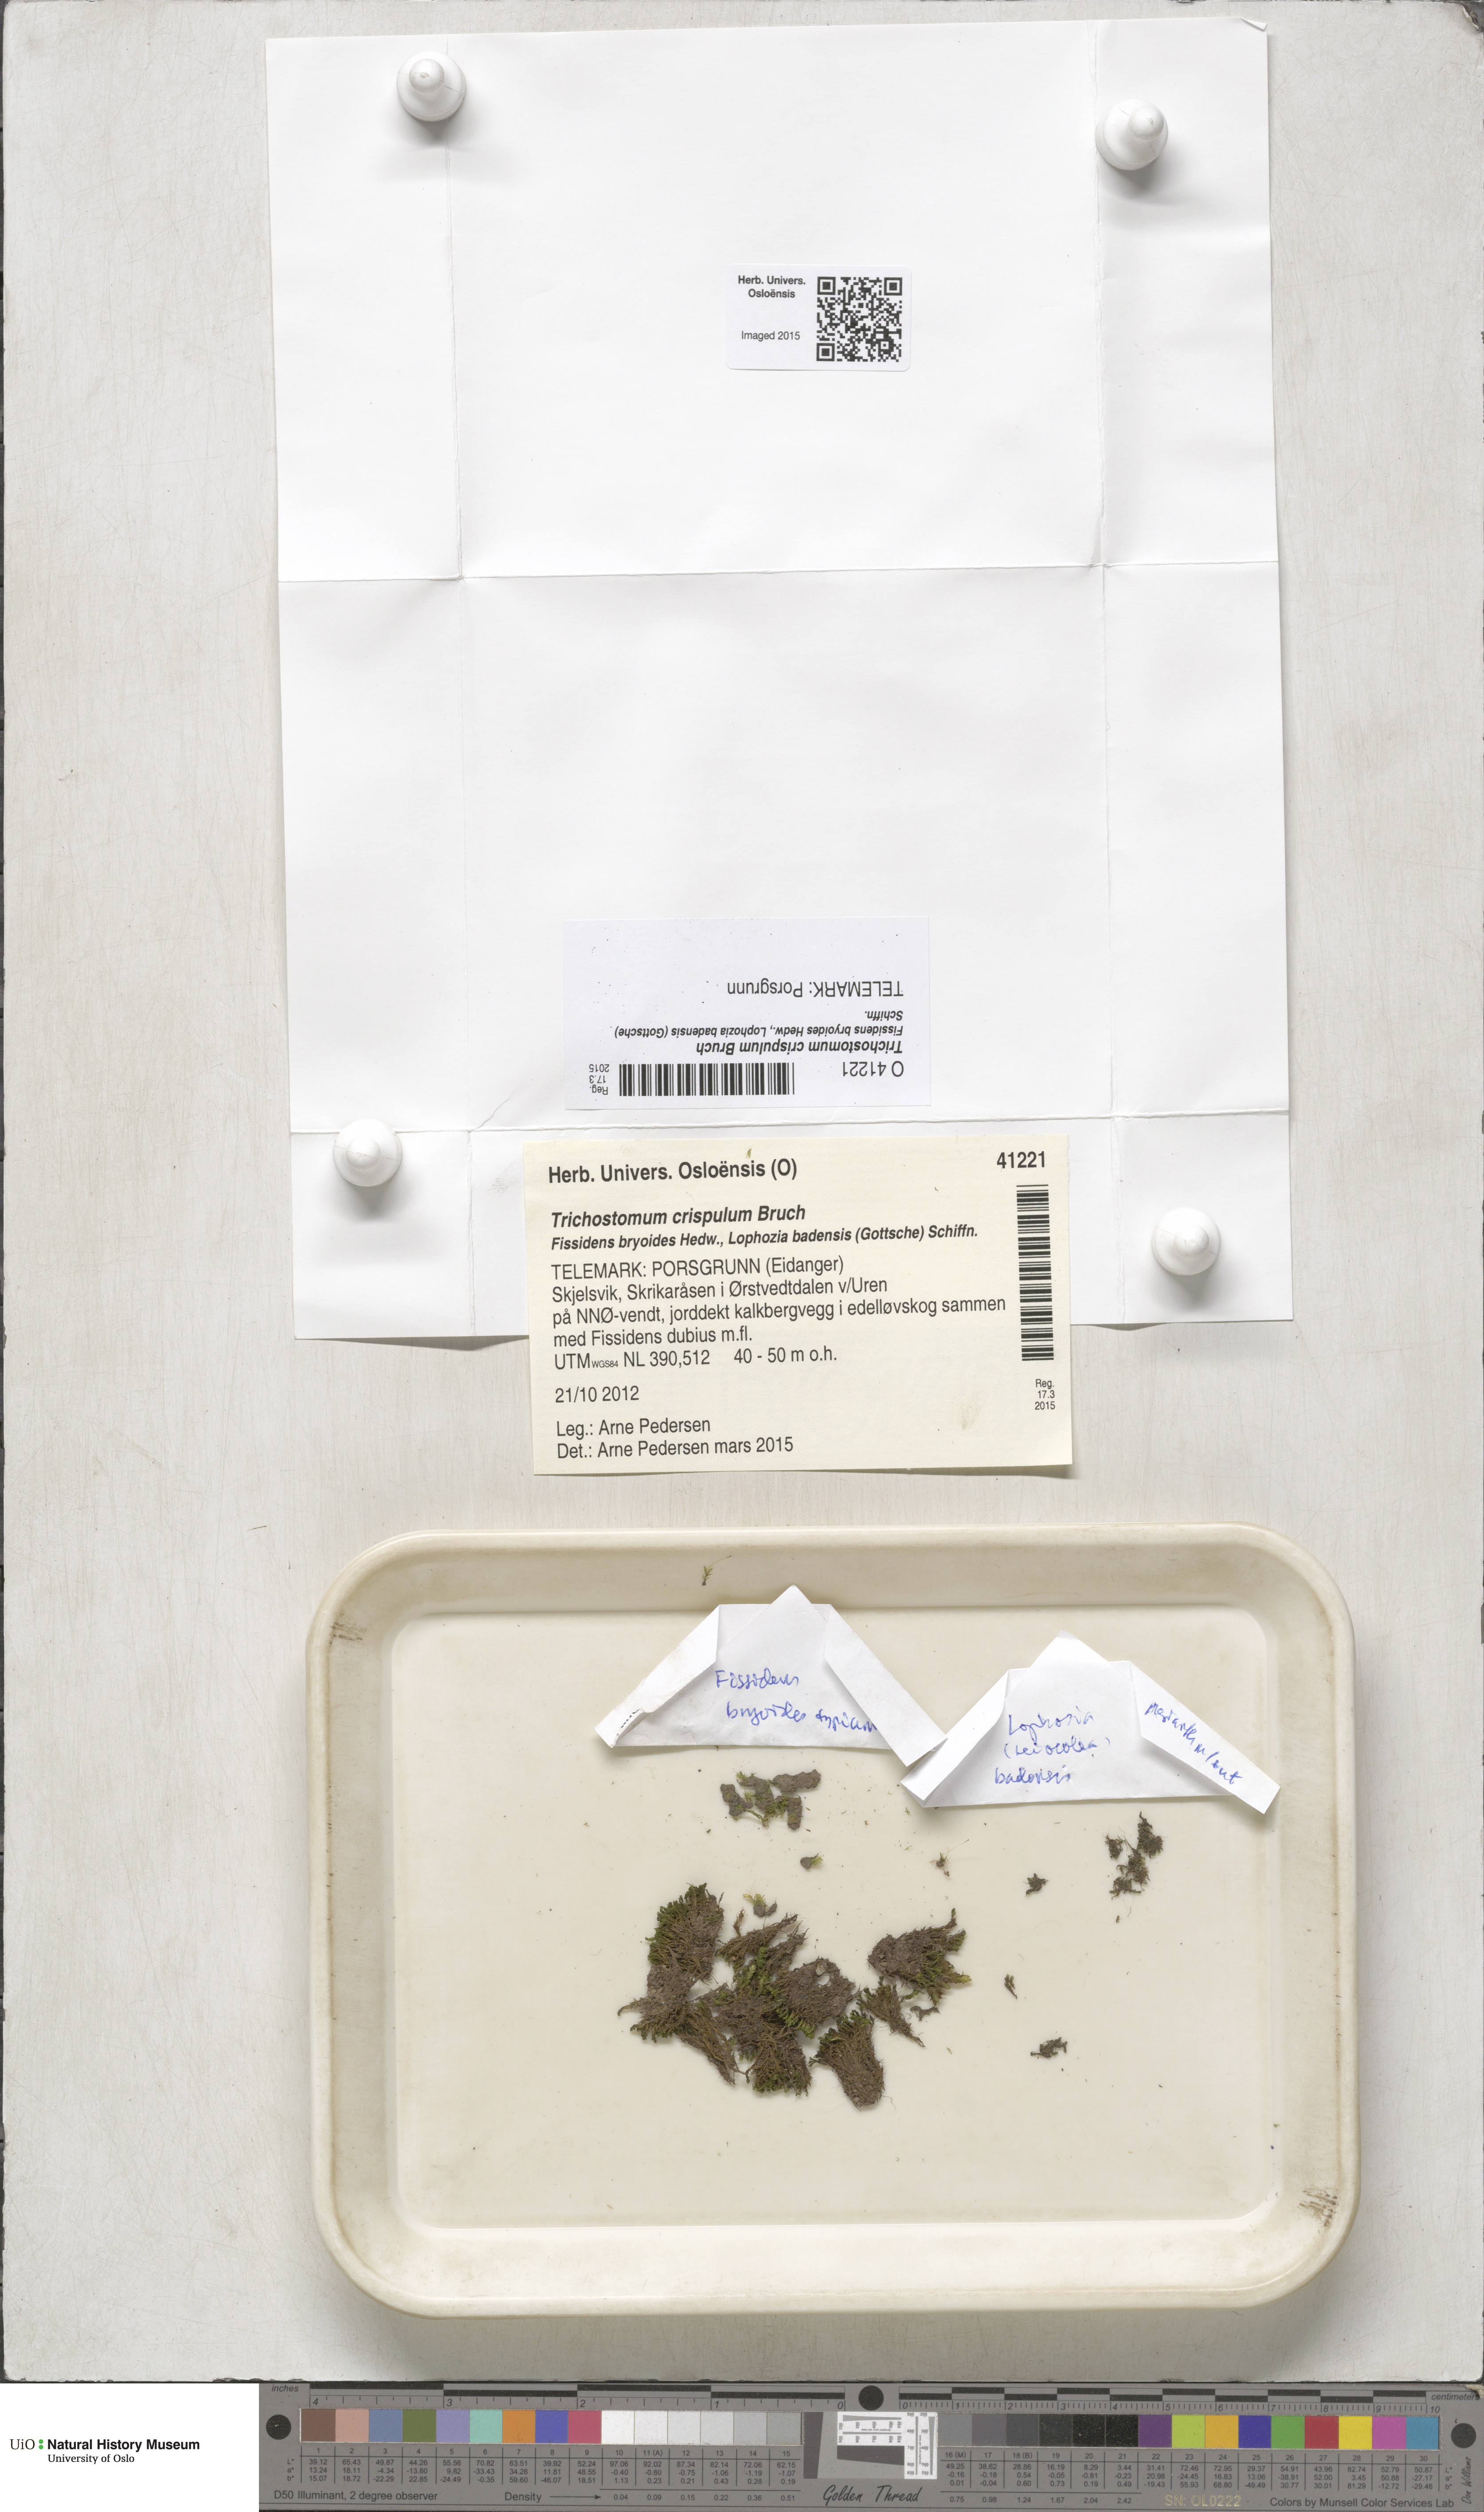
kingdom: Plantae
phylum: Bryophyta
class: Bryopsida
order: Pottiales
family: Pottiaceae
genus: Trichostomum
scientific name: Trichostomum crispulum
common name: Curly crisp-moss
